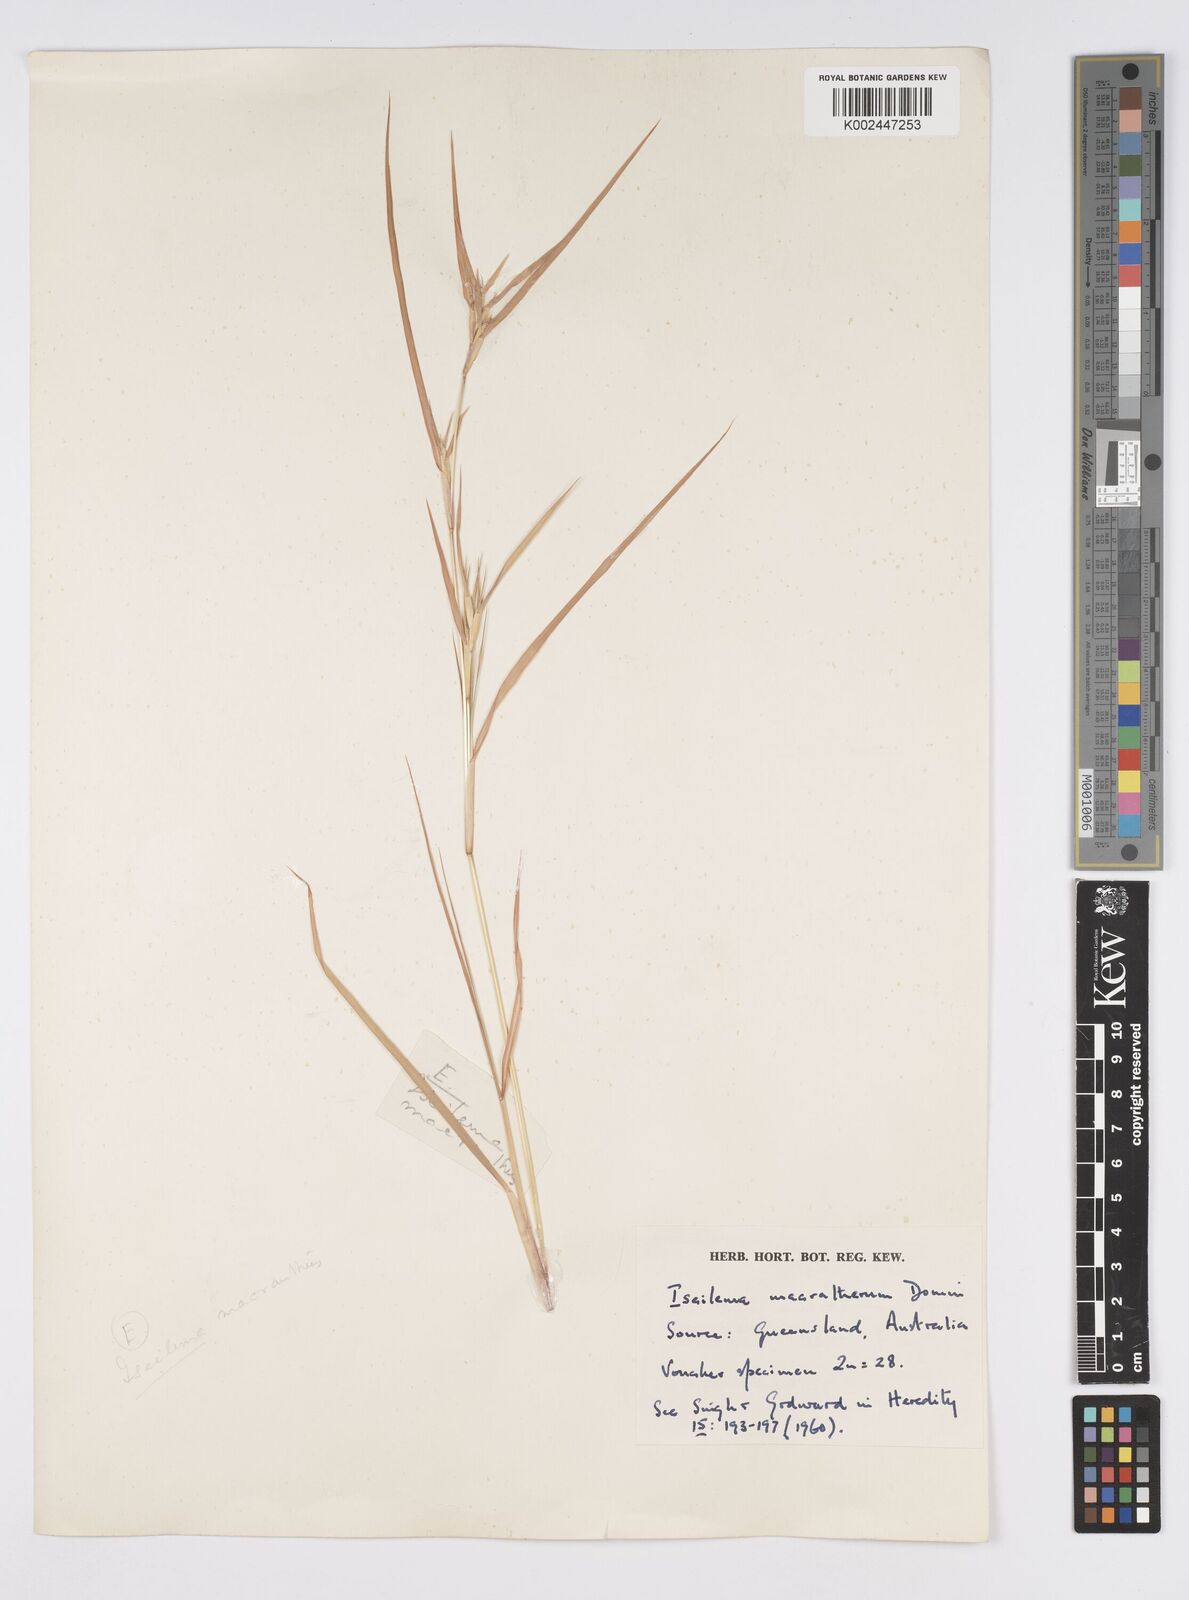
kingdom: Plantae
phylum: Tracheophyta
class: Liliopsida
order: Poales
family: Poaceae
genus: Iseilema
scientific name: Iseilema macratherum
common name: Bull flinders grass
